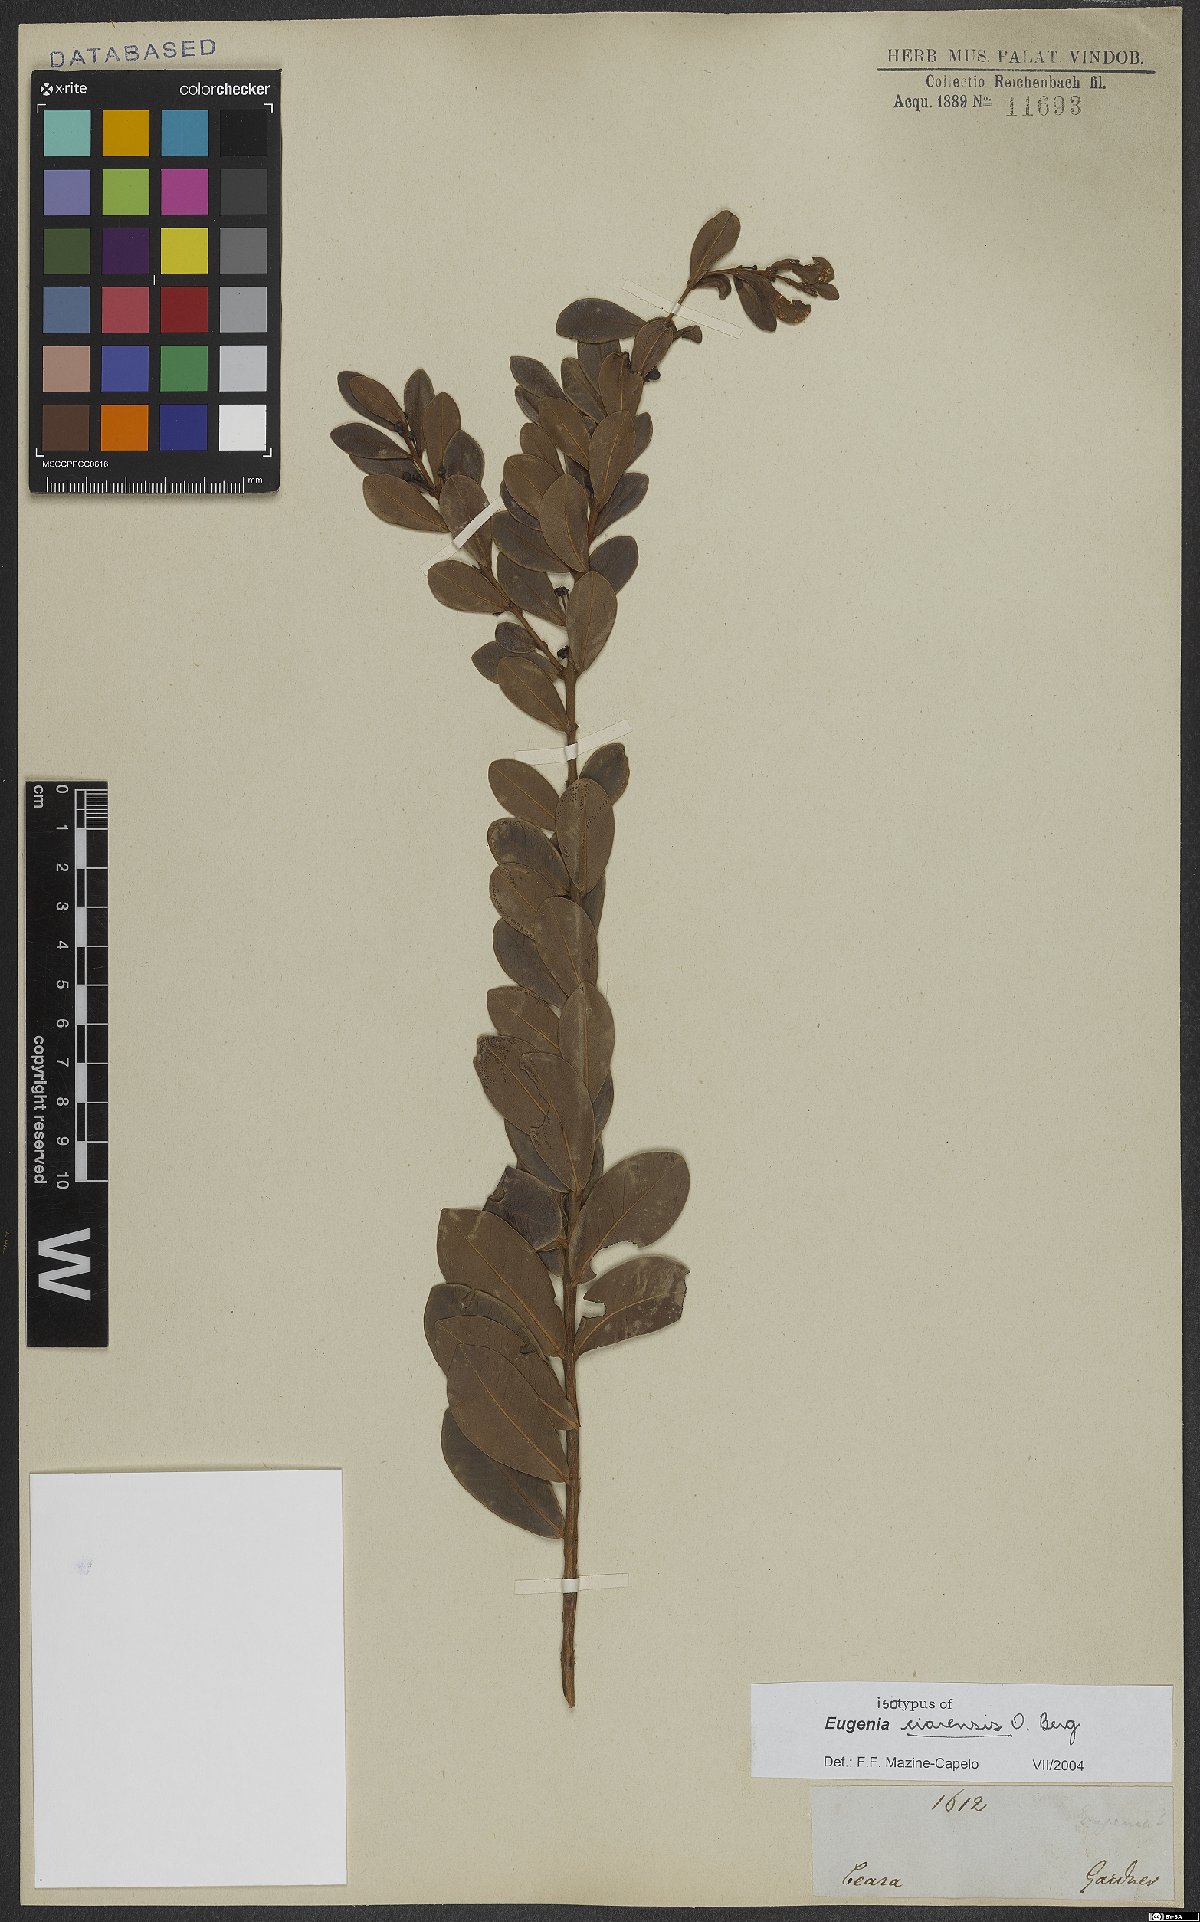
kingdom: Plantae
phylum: Tracheophyta
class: Magnoliopsida
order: Myrtales
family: Myrtaceae
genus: Eugenia
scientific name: Eugenia punicifolia
